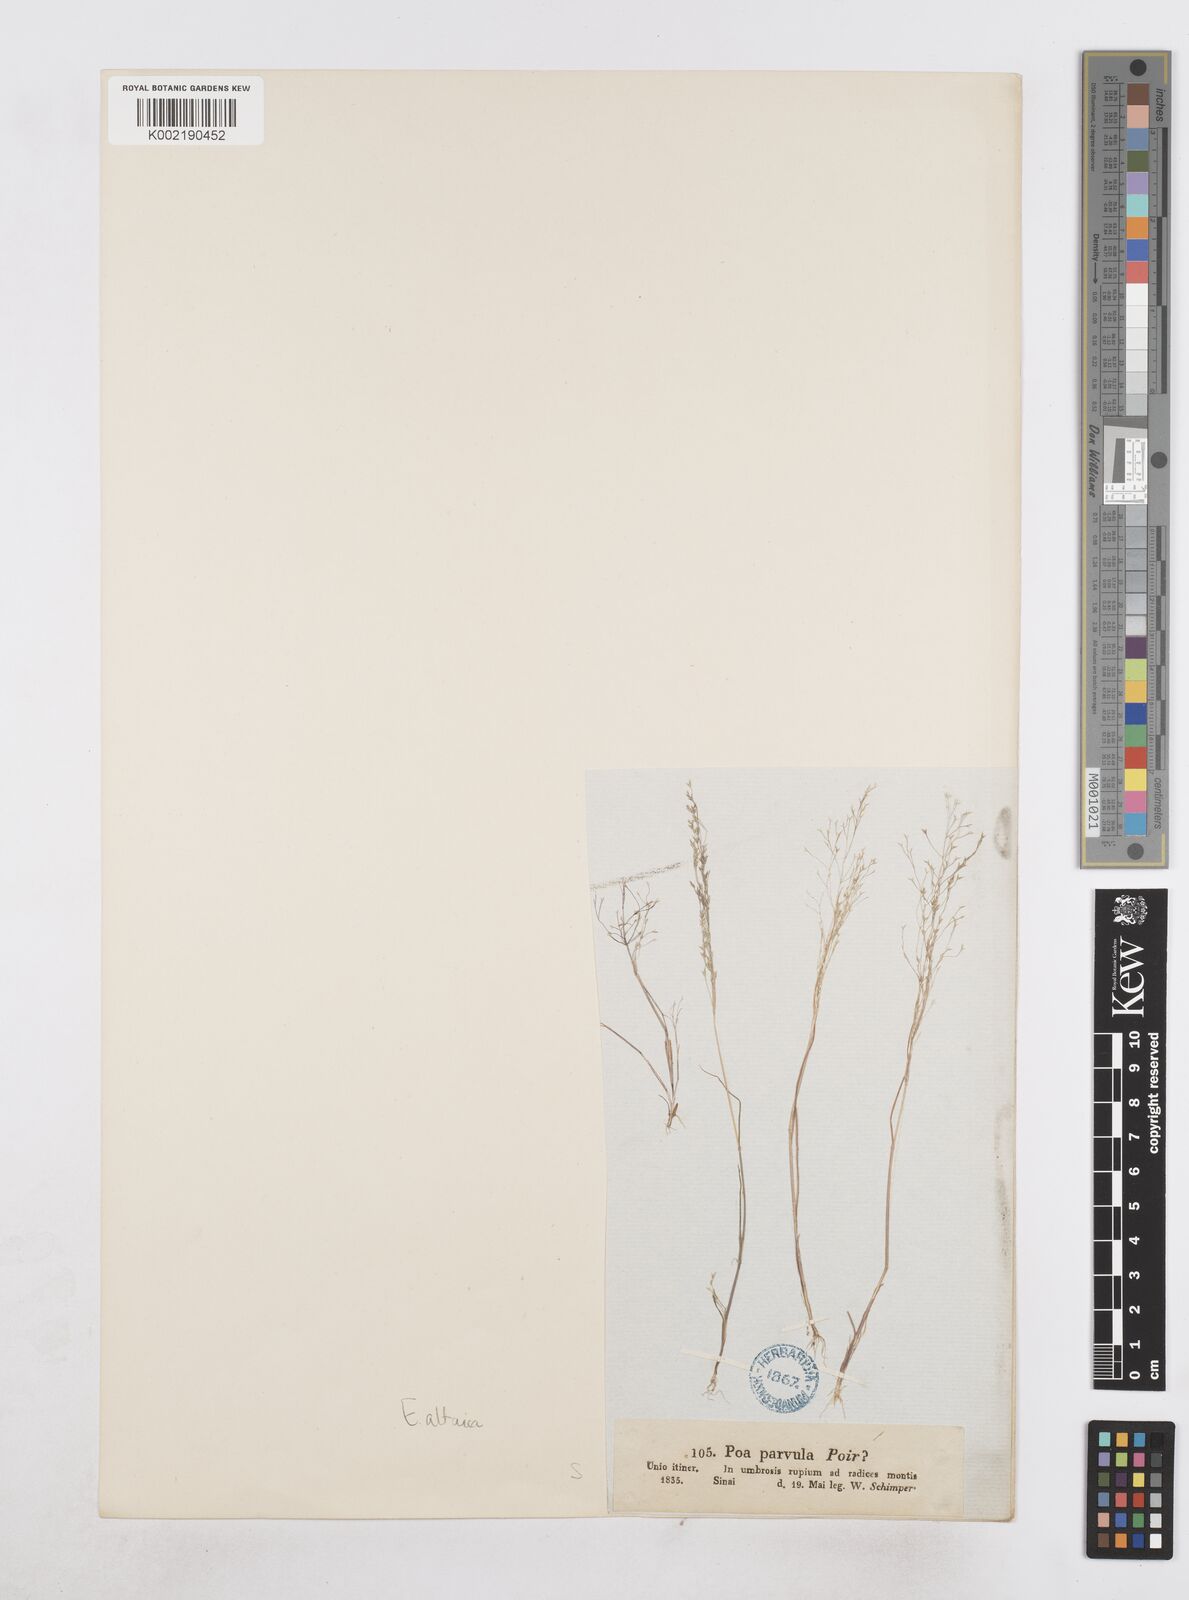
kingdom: Plantae
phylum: Tracheophyta
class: Liliopsida
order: Poales
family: Poaceae
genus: Poa
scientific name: Poa diaphora
